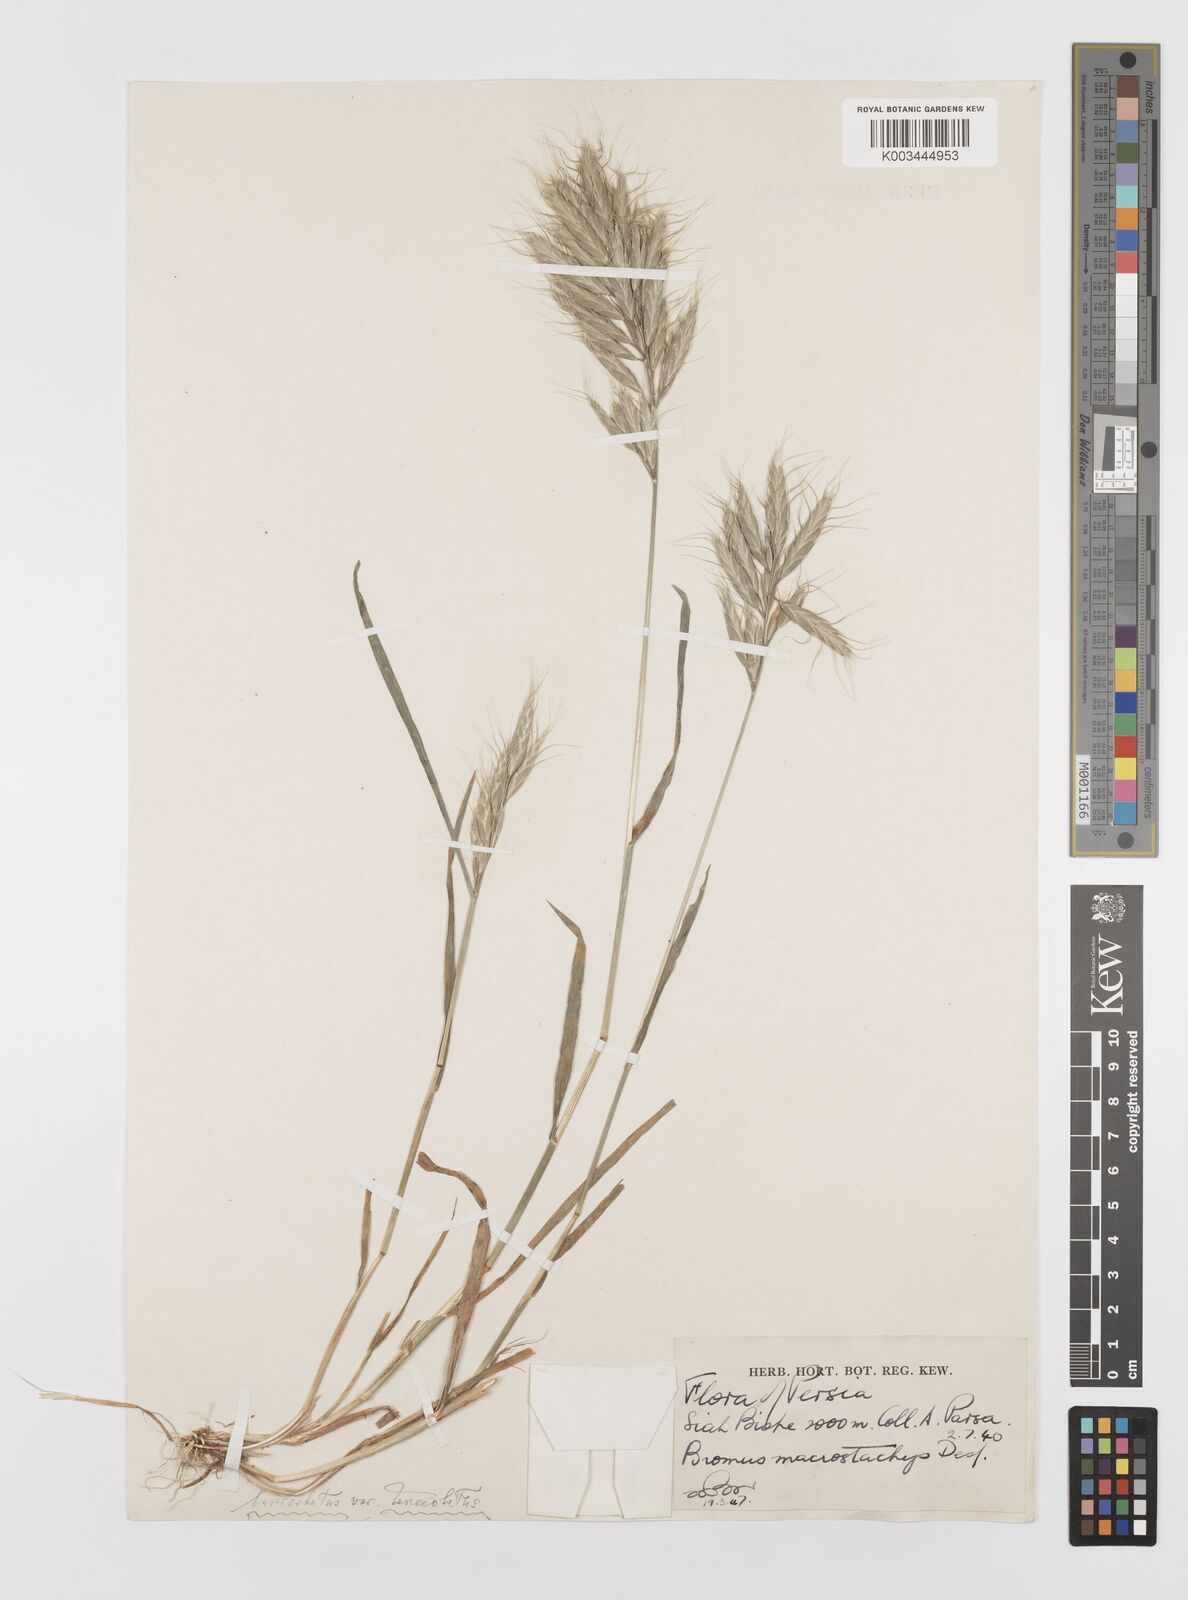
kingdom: Plantae
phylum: Tracheophyta
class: Liliopsida
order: Poales
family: Poaceae
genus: Bromus
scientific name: Bromus lanceolatus
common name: Mediterranean brome
